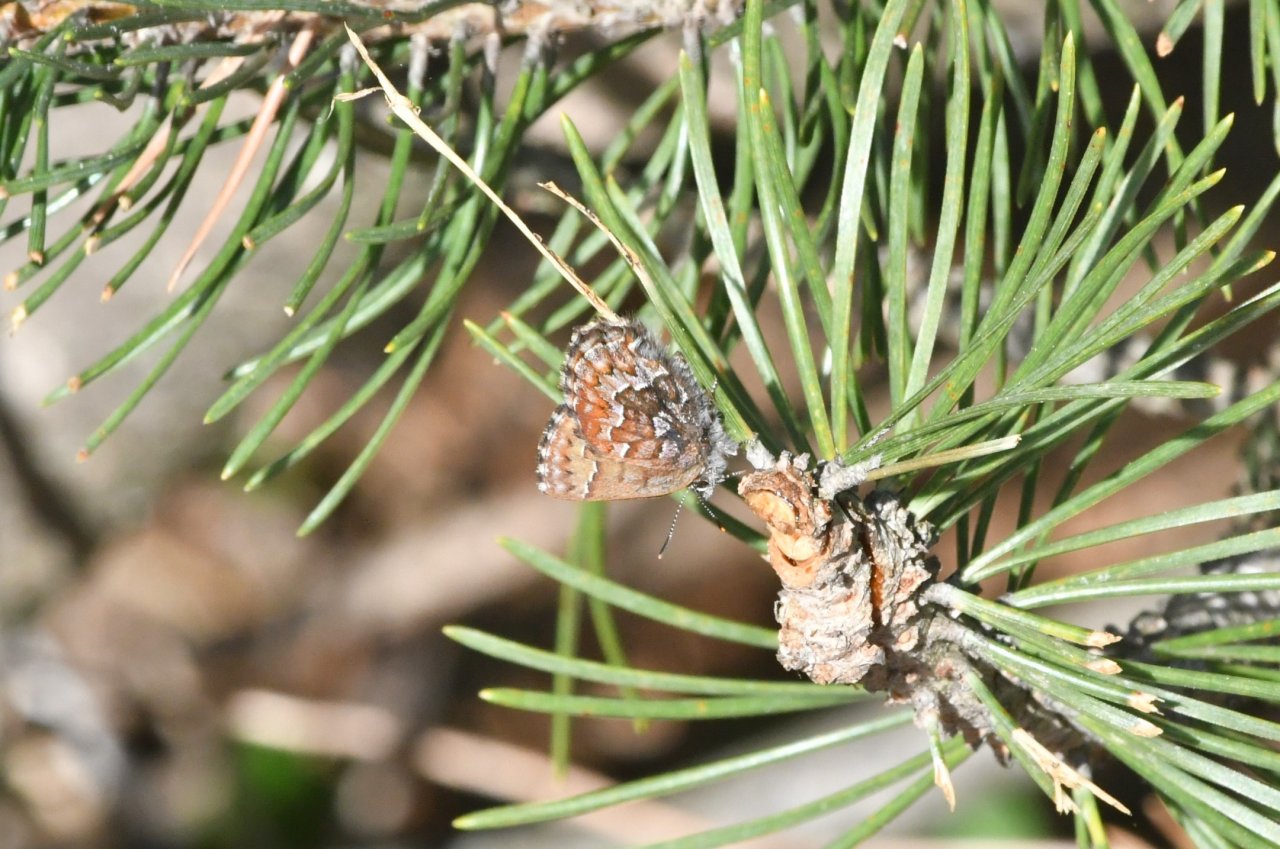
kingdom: Animalia
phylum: Arthropoda
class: Insecta
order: Lepidoptera
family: Lycaenidae
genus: Incisalia
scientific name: Incisalia niphon
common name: Eastern Pine Elfin
